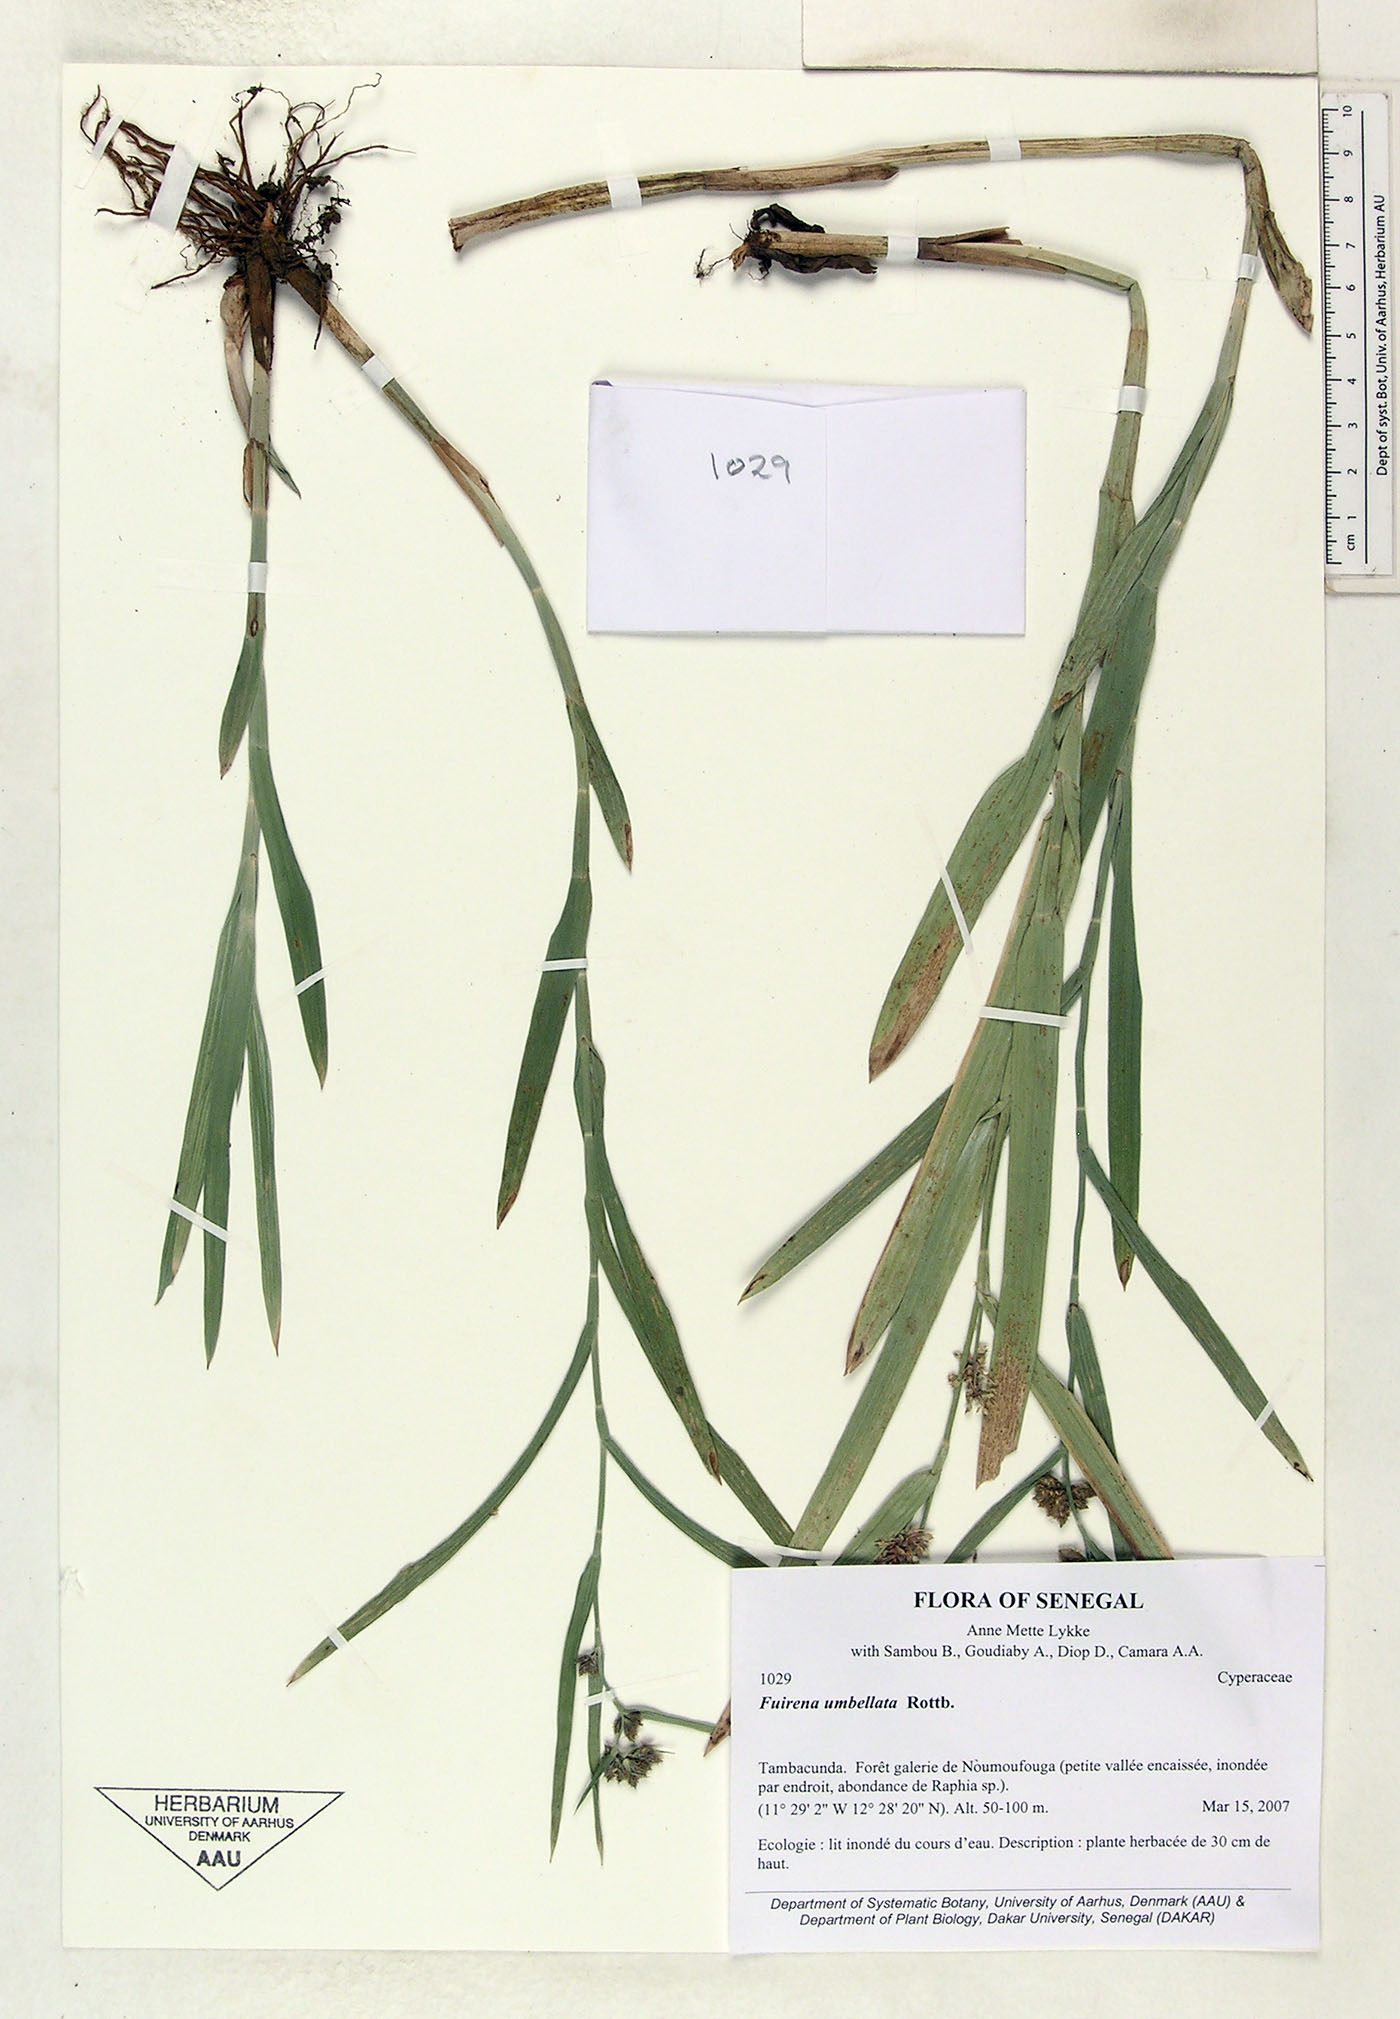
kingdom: Plantae
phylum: Tracheophyta
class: Liliopsida
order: Poales
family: Cyperaceae
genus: Fuirena
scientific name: Fuirena umbellata
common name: Yefen
